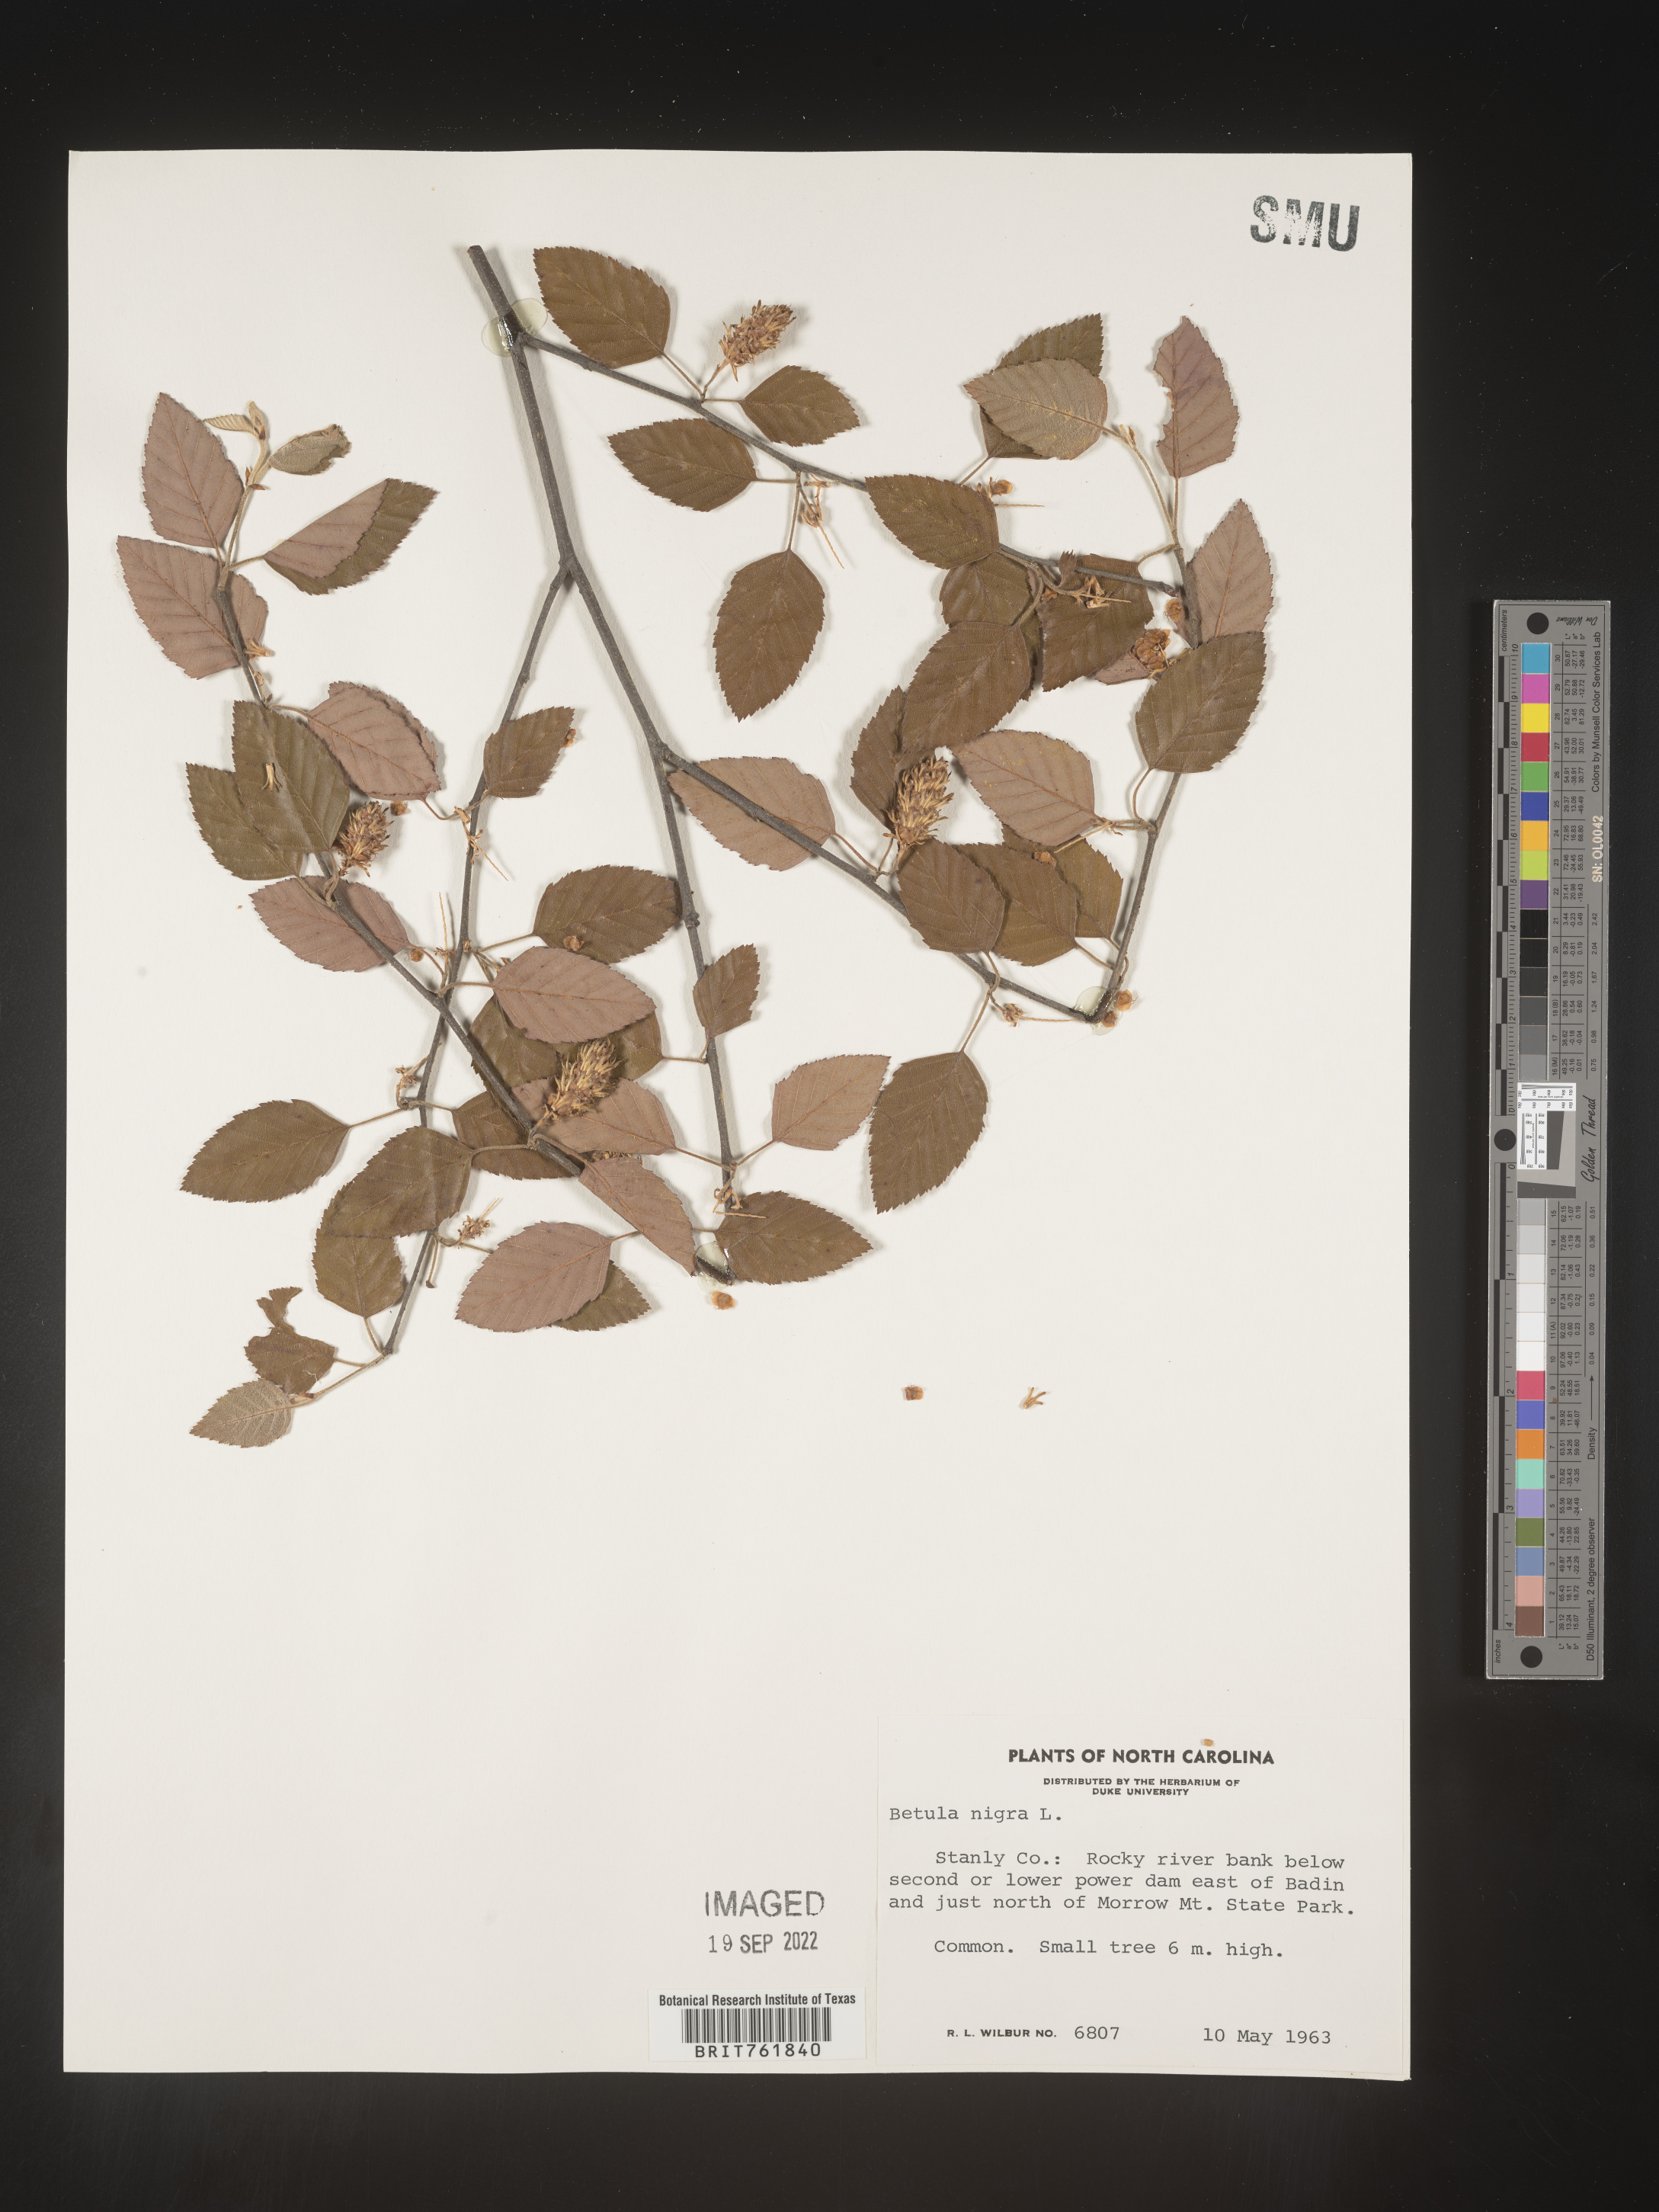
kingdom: Plantae
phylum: Tracheophyta
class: Magnoliopsida
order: Fagales
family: Betulaceae
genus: Betula
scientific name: Betula nigra
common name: Black birch
